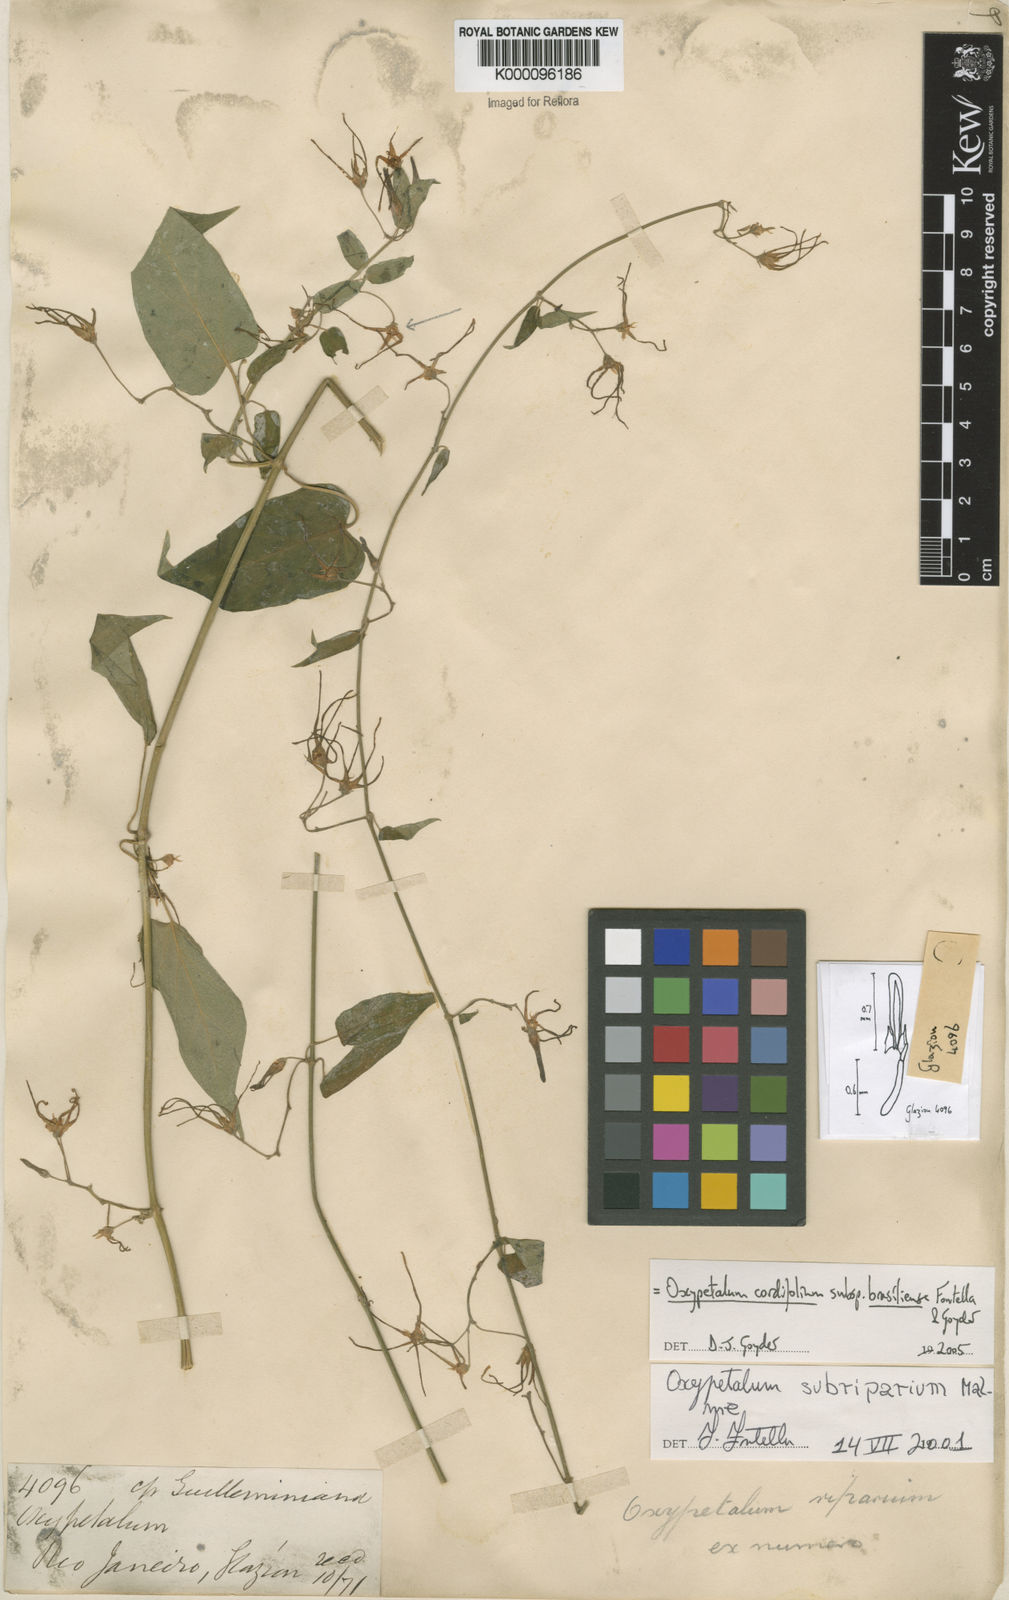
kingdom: Plantae
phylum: Tracheophyta
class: Magnoliopsida
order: Gentianales
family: Apocynaceae
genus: Oxypetalum
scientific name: Oxypetalum cordifolium
